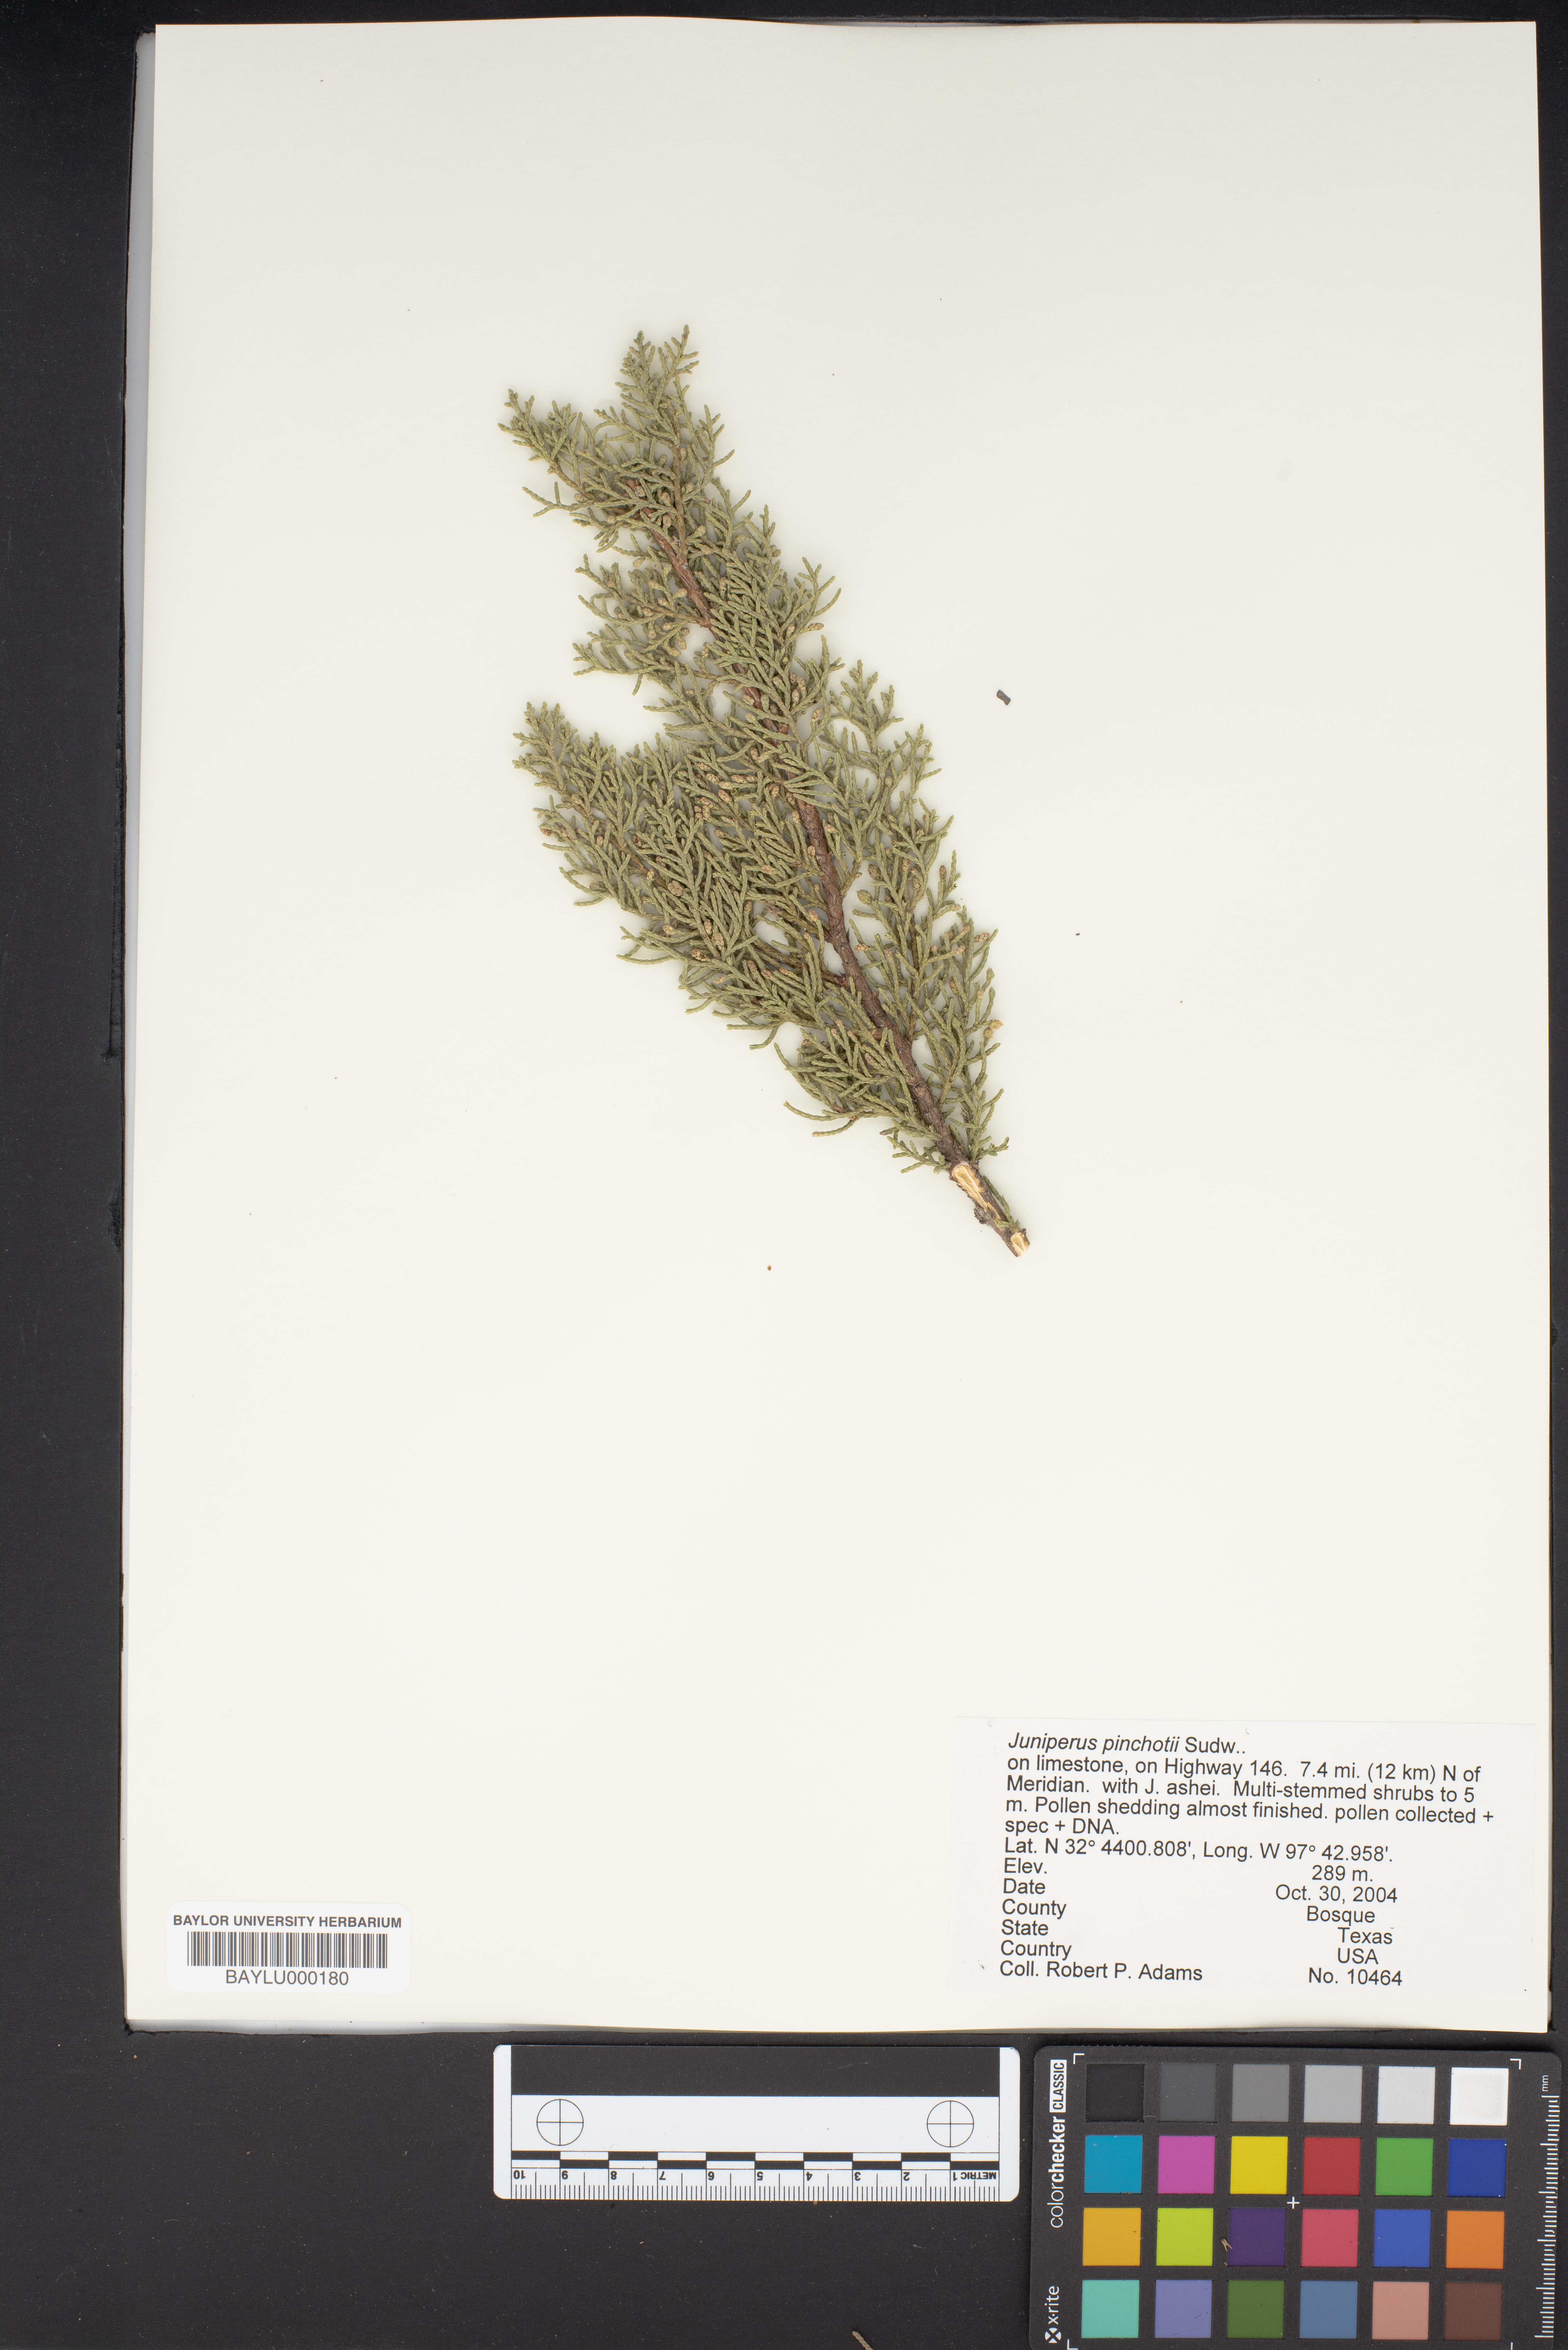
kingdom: Plantae
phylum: Tracheophyta
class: Pinopsida
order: Pinales
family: Cupressaceae
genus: Juniperus
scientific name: Juniperus pinchotii
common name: Pinchot juniper
